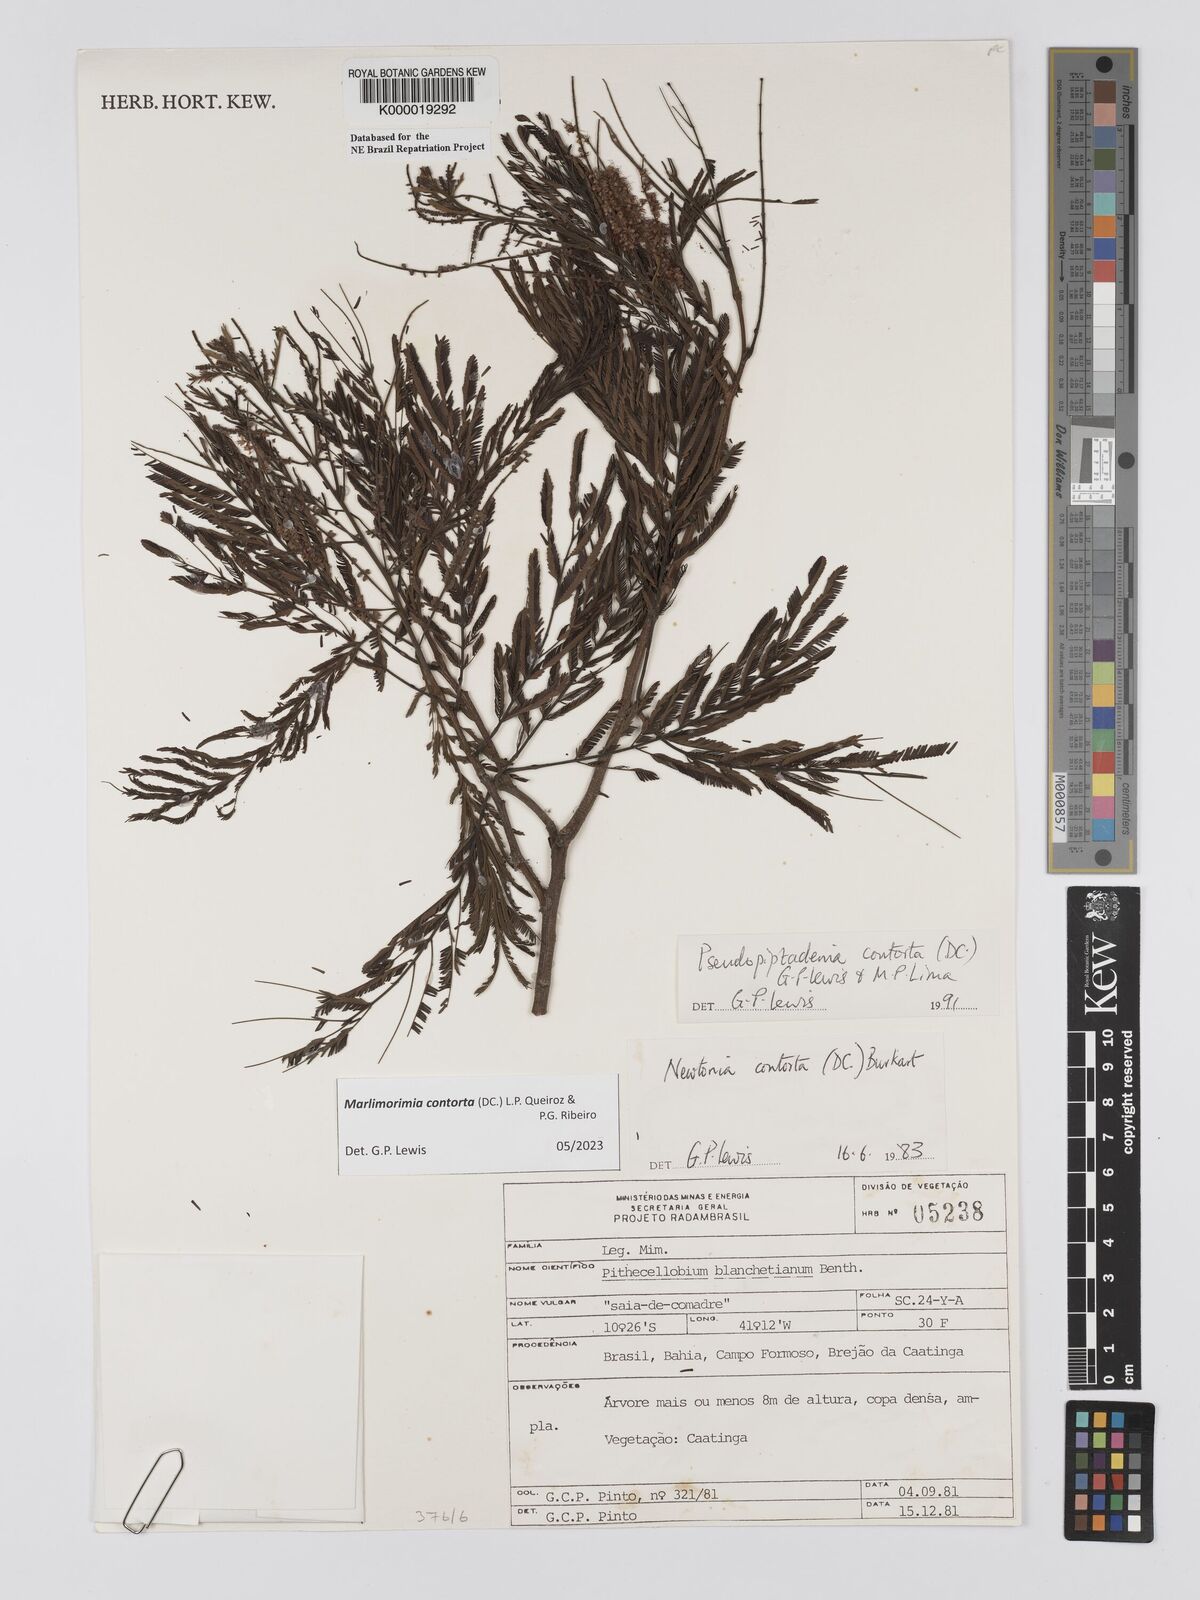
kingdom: Plantae
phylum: Tracheophyta
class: Magnoliopsida
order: Fabales
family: Fabaceae
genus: Pseudopiptadenia
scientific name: Pseudopiptadenia contorta
